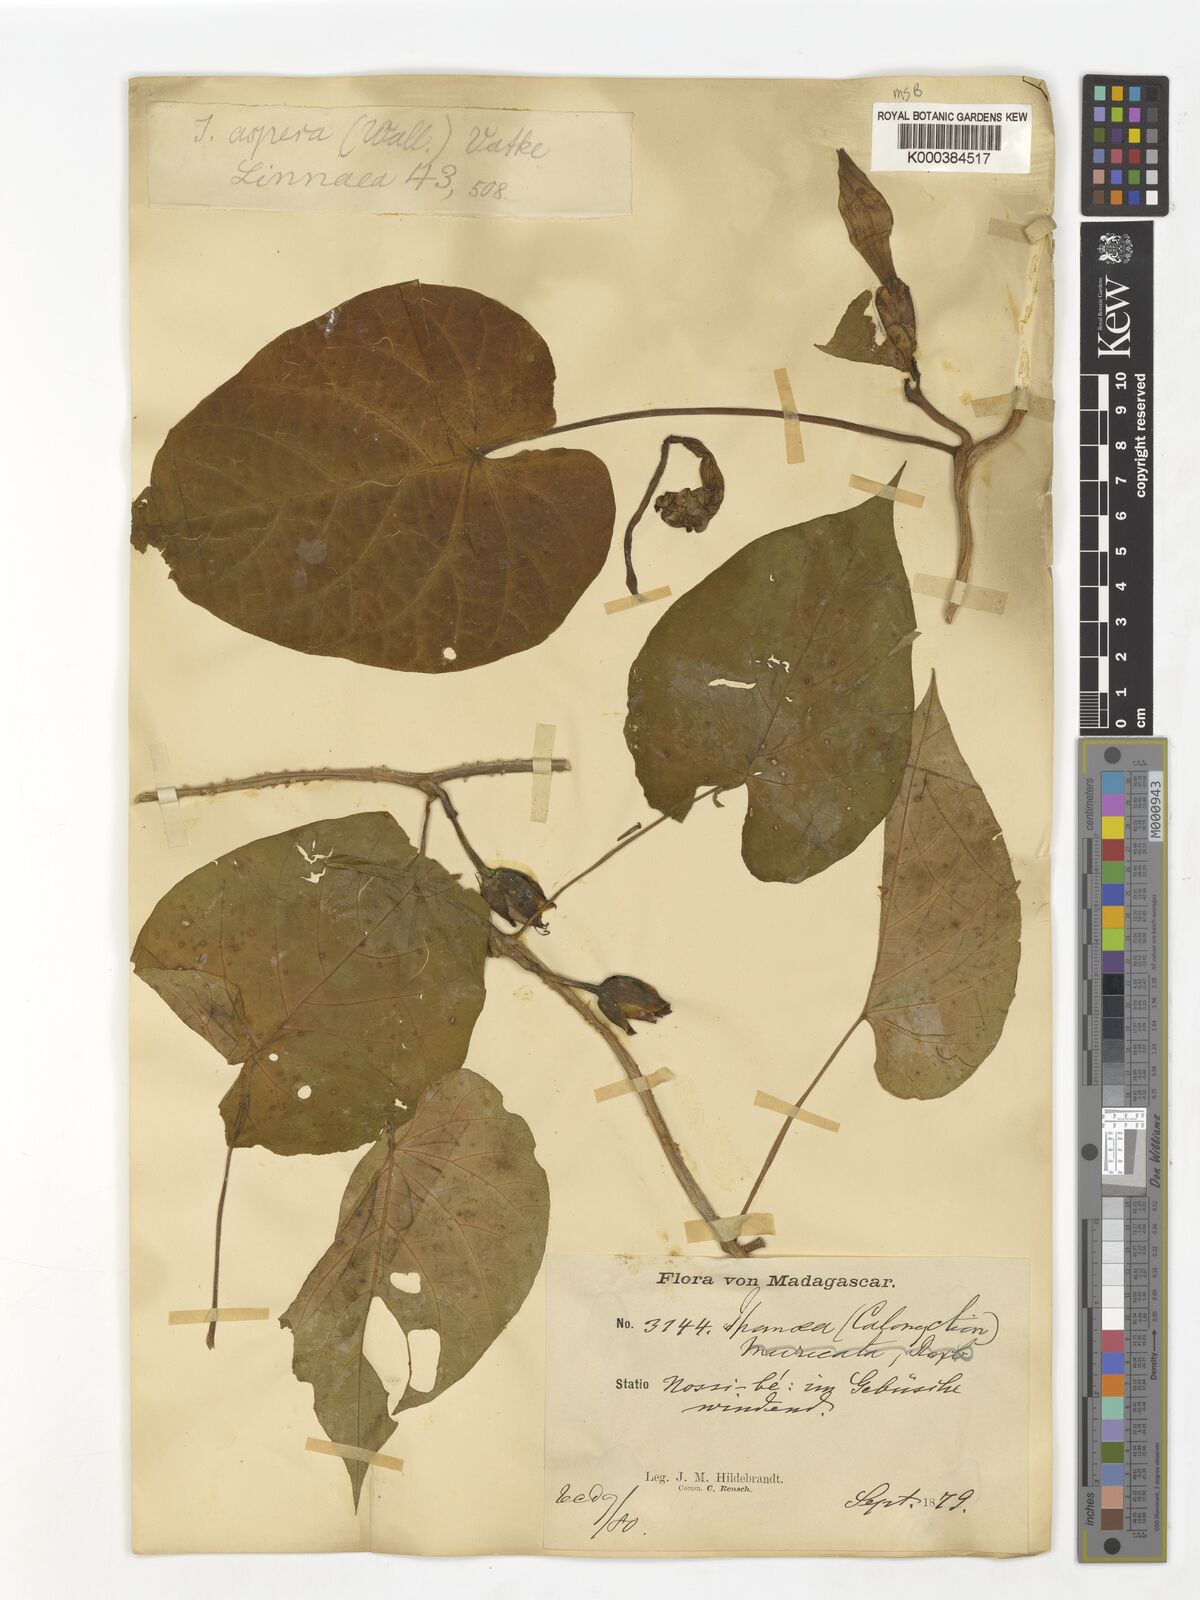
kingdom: Plantae
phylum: Tracheophyta
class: Magnoliopsida
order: Solanales
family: Convolvulaceae
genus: Ipomoea
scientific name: Ipomoea aspera
